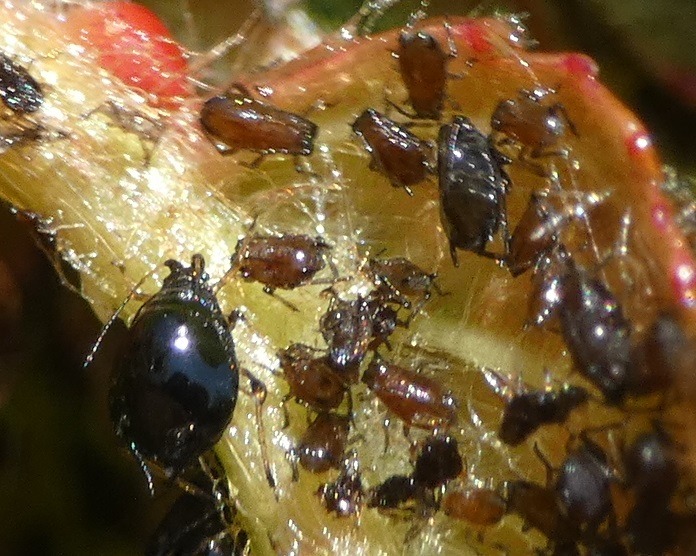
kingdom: Animalia
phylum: Arthropoda
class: Insecta
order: Hemiptera
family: Aphididae
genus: Myzus
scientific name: Myzus cerasi
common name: Kirsebærbladlus
